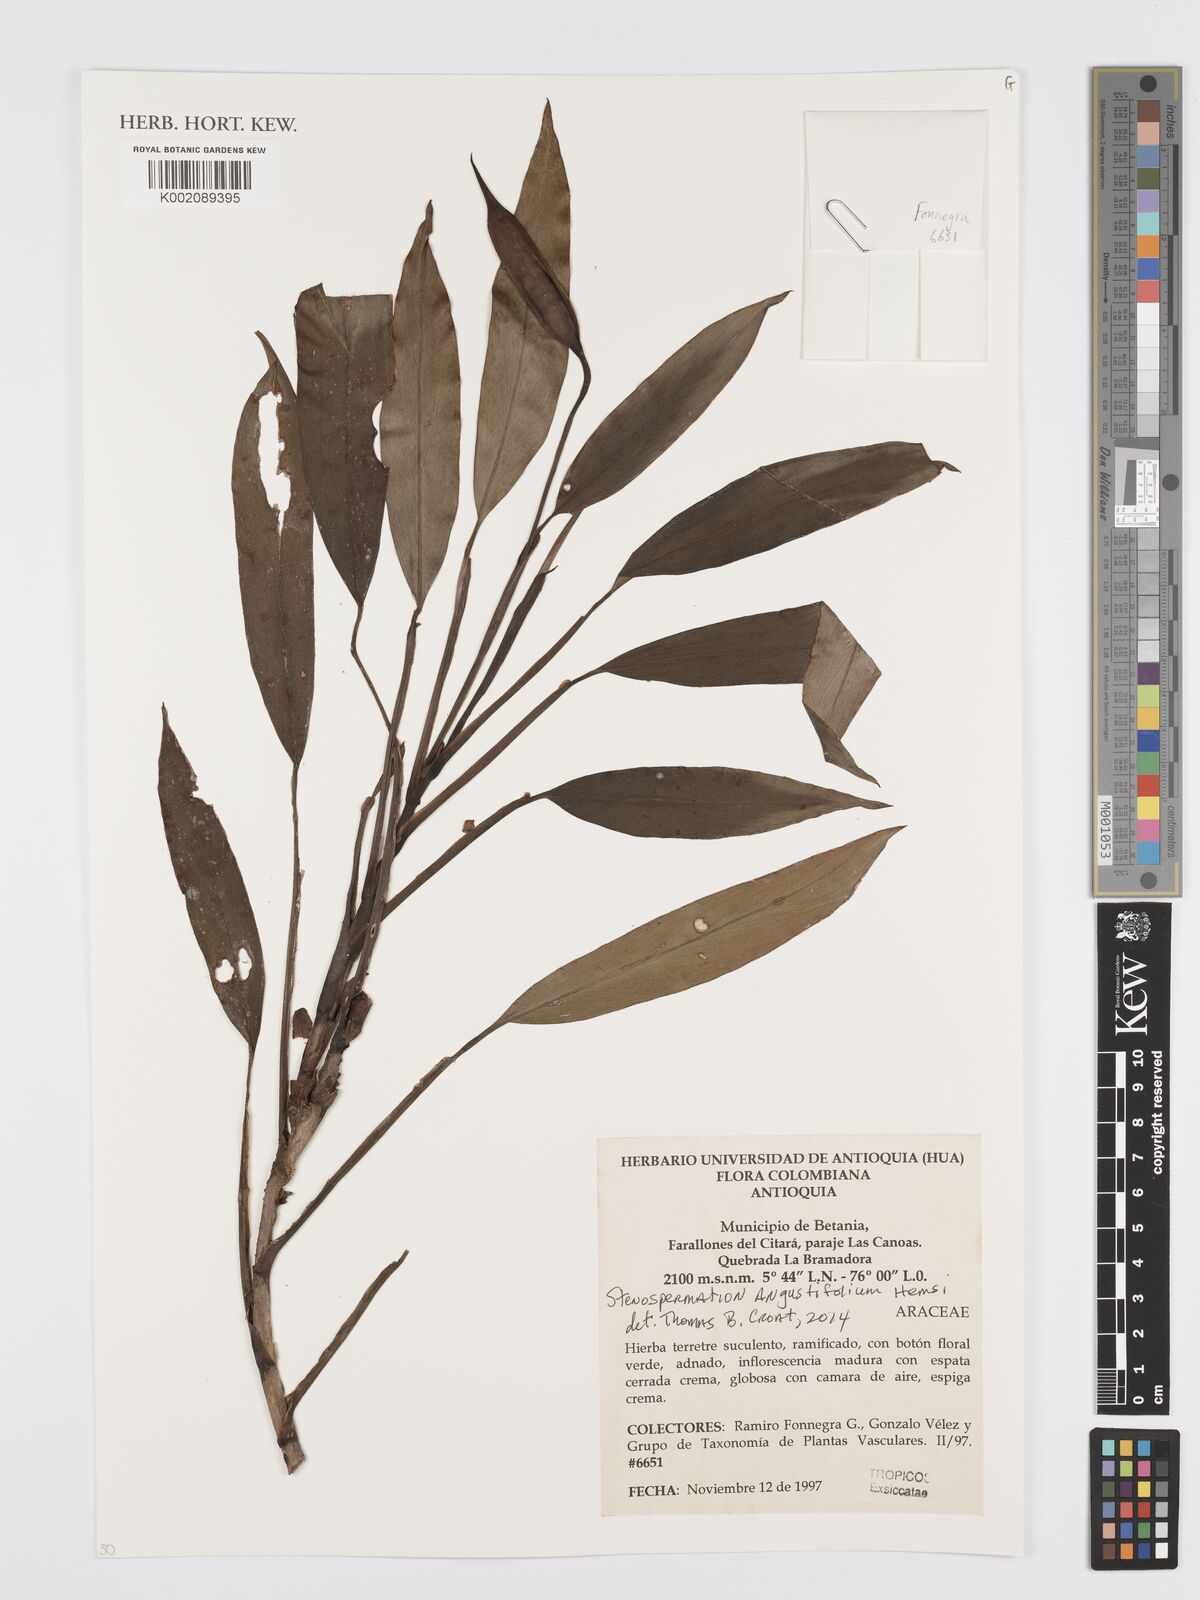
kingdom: Plantae
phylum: Tracheophyta
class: Liliopsida
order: Alismatales
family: Araceae
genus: Stenospermation
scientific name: Stenospermation angustifolium
